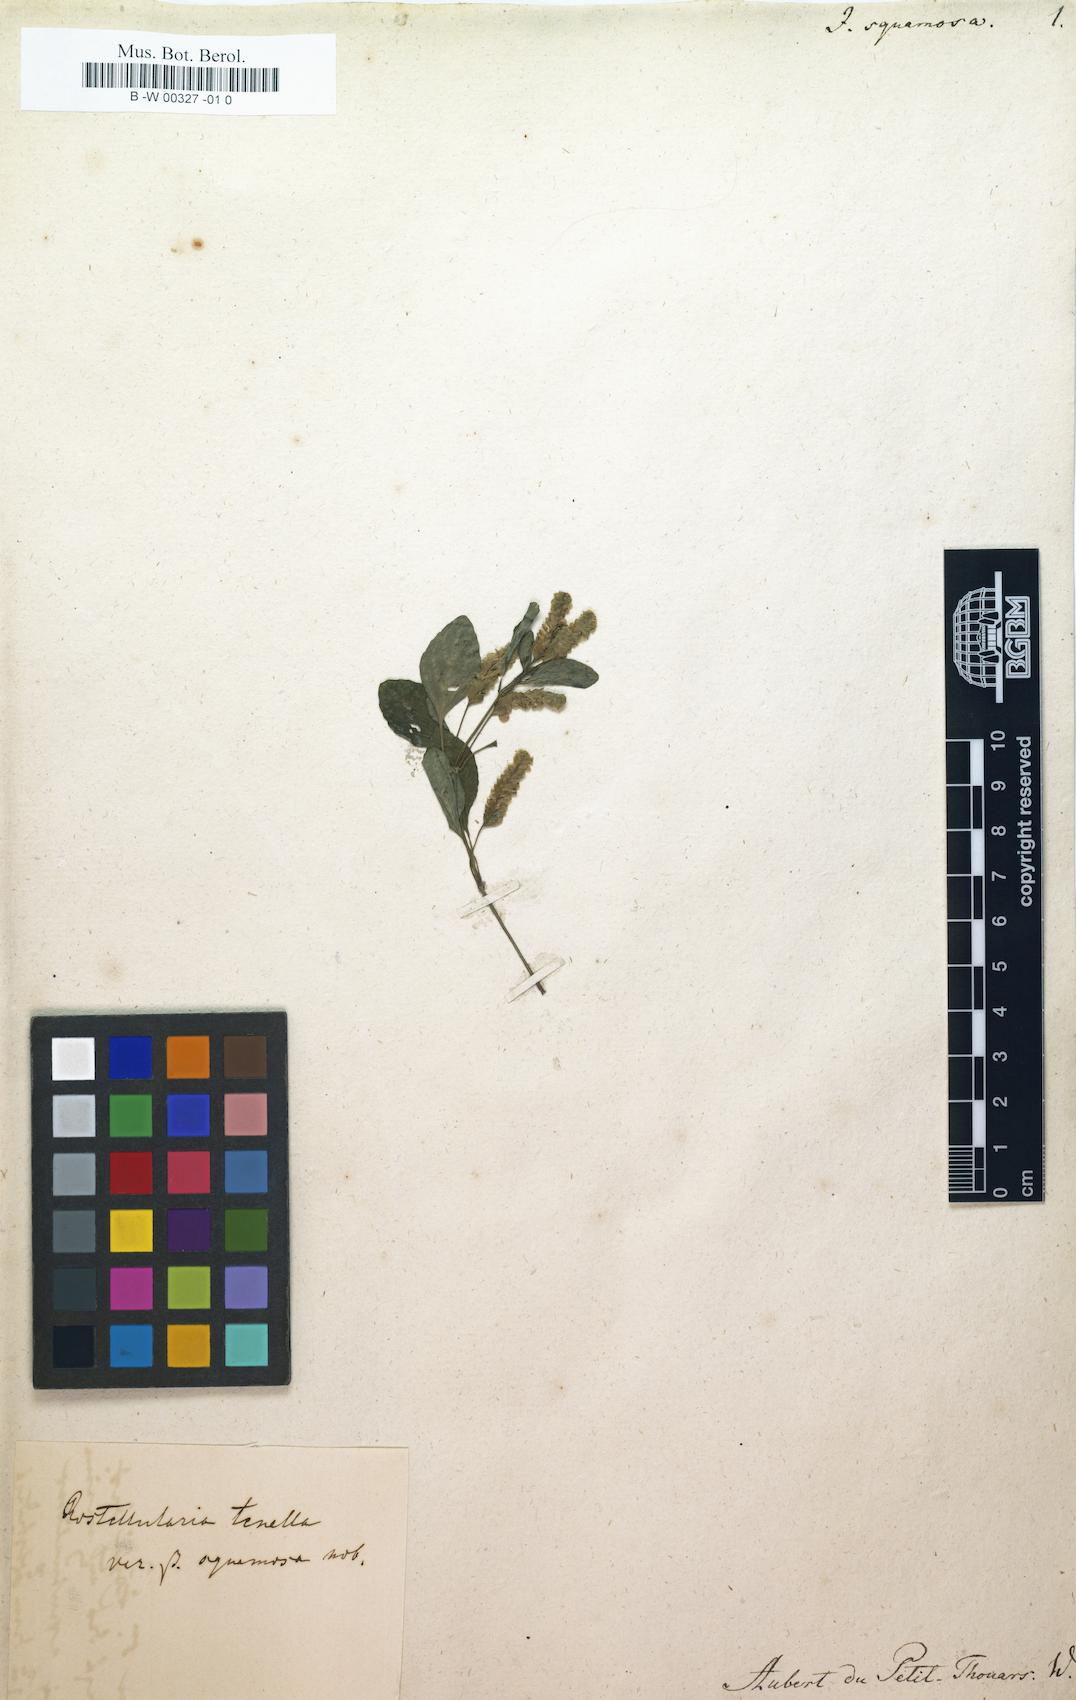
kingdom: Plantae
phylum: Tracheophyta
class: Magnoliopsida
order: Lamiales
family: Acanthaceae
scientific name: Acanthaceae
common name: Acanthaceae
